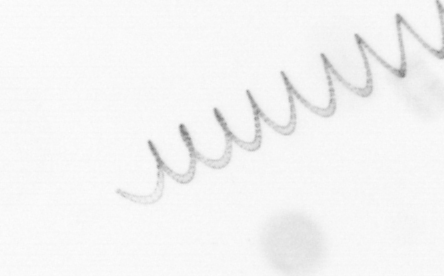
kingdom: Chromista
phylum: Ochrophyta
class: Bacillariophyceae
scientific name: Bacillariophyceae
